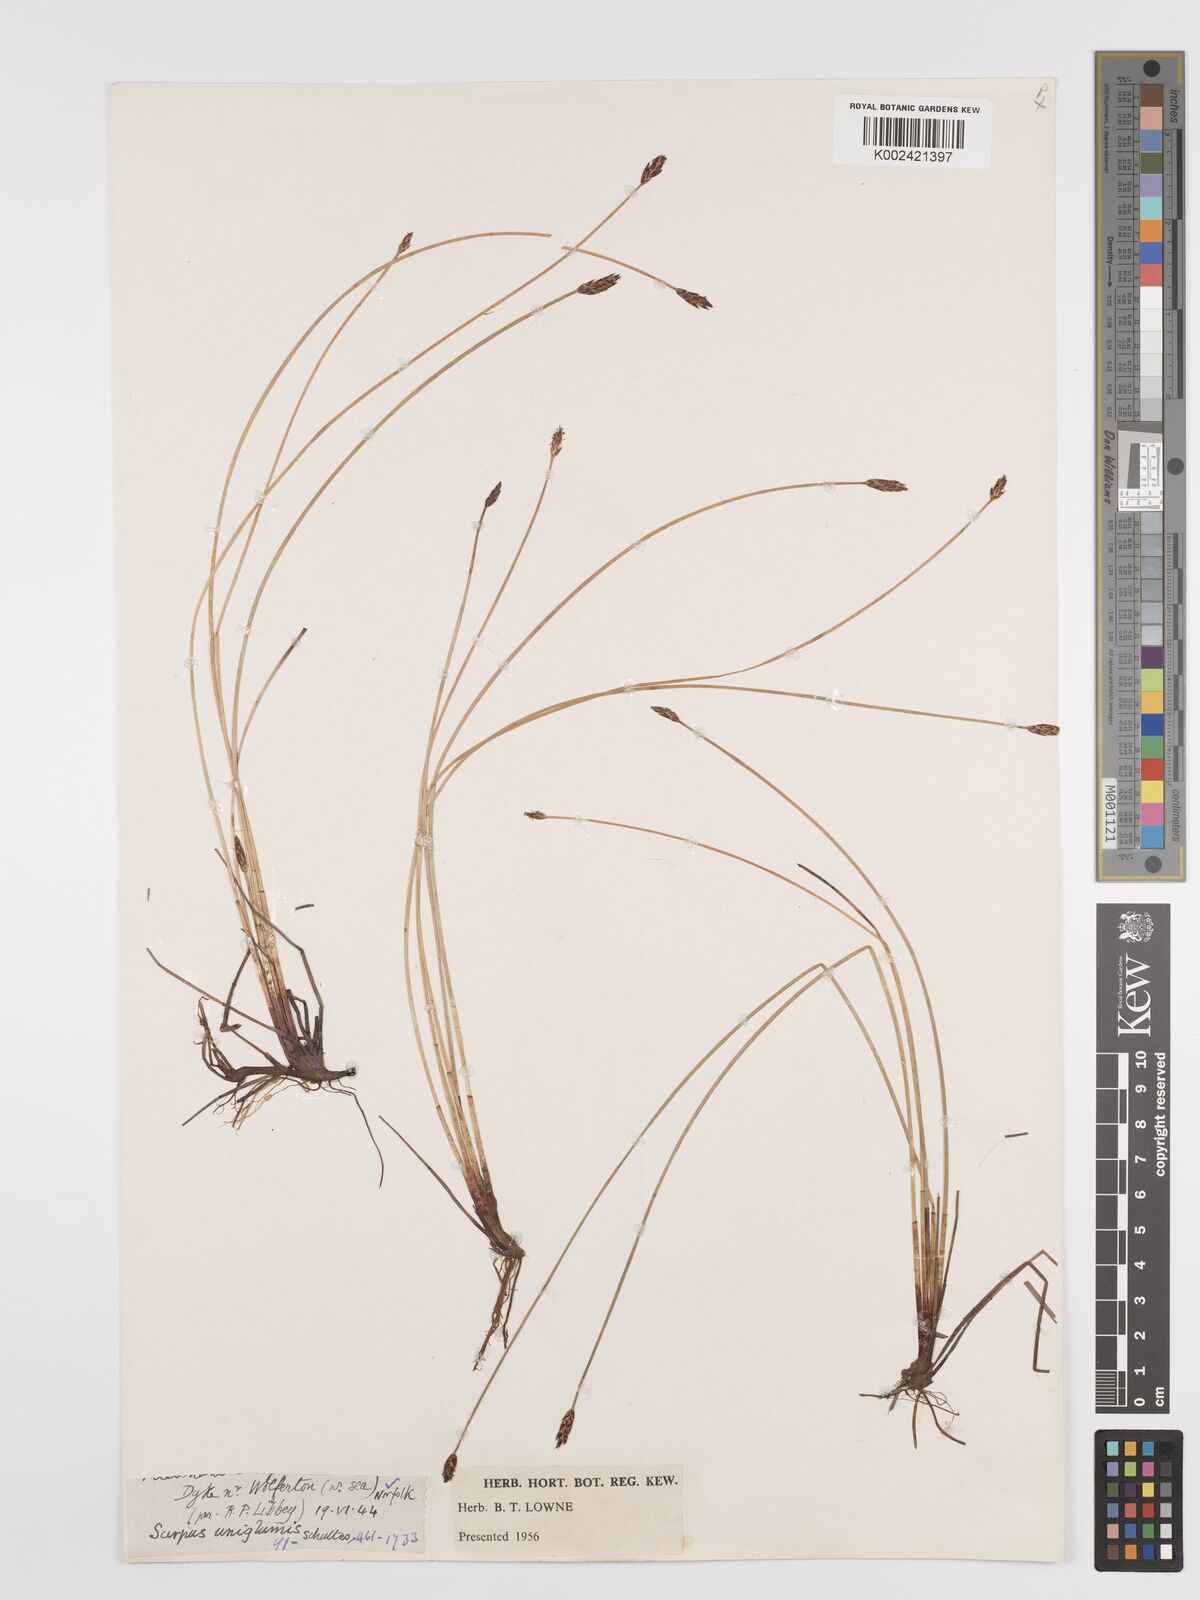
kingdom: Plantae
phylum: Tracheophyta
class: Liliopsida
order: Poales
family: Cyperaceae
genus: Eleocharis
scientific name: Eleocharis uniglumis
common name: Slender spike-rush
